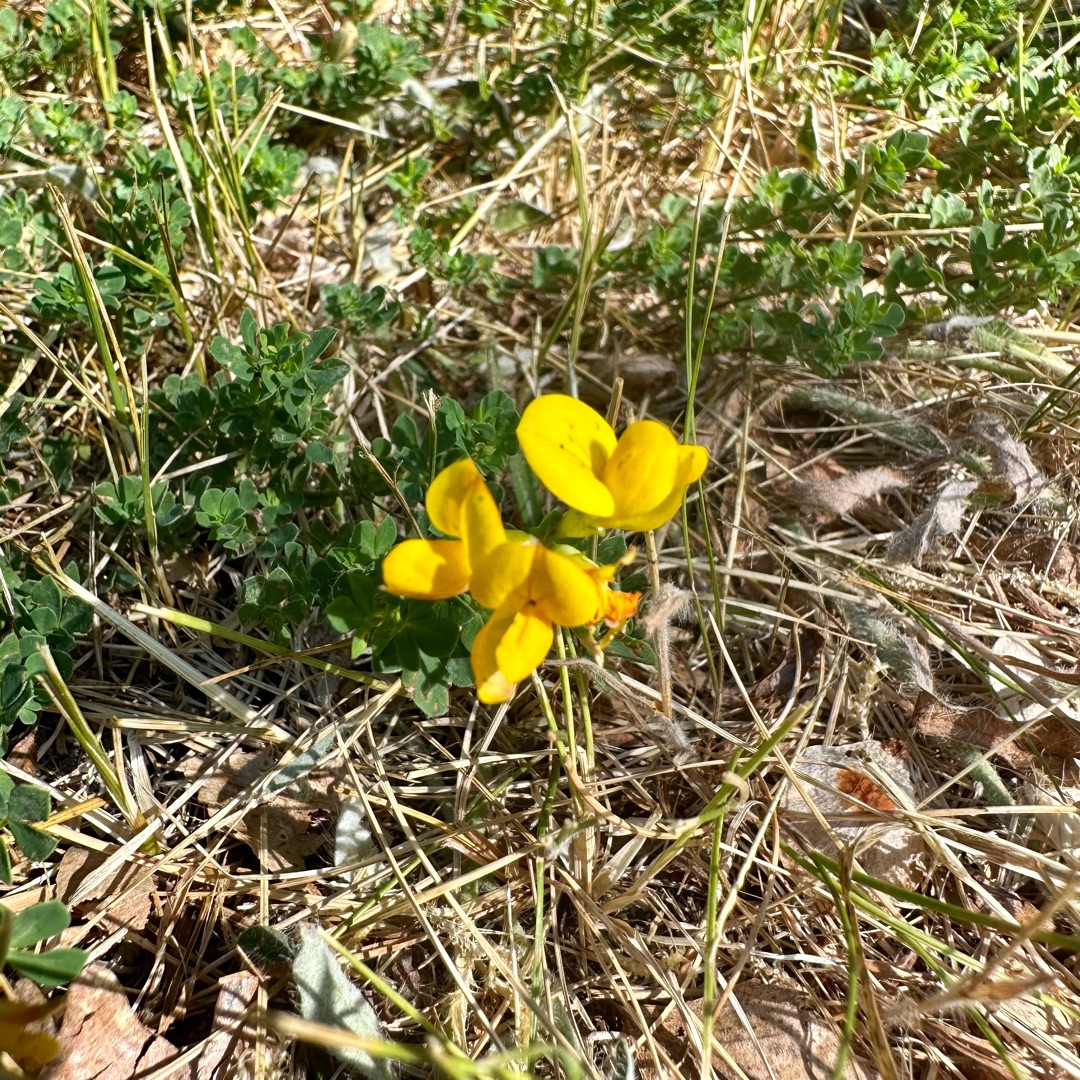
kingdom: Plantae
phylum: Tracheophyta
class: Magnoliopsida
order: Fabales
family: Fabaceae
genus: Lotus
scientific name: Lotus corniculatus
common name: Almindelig kællingetand
